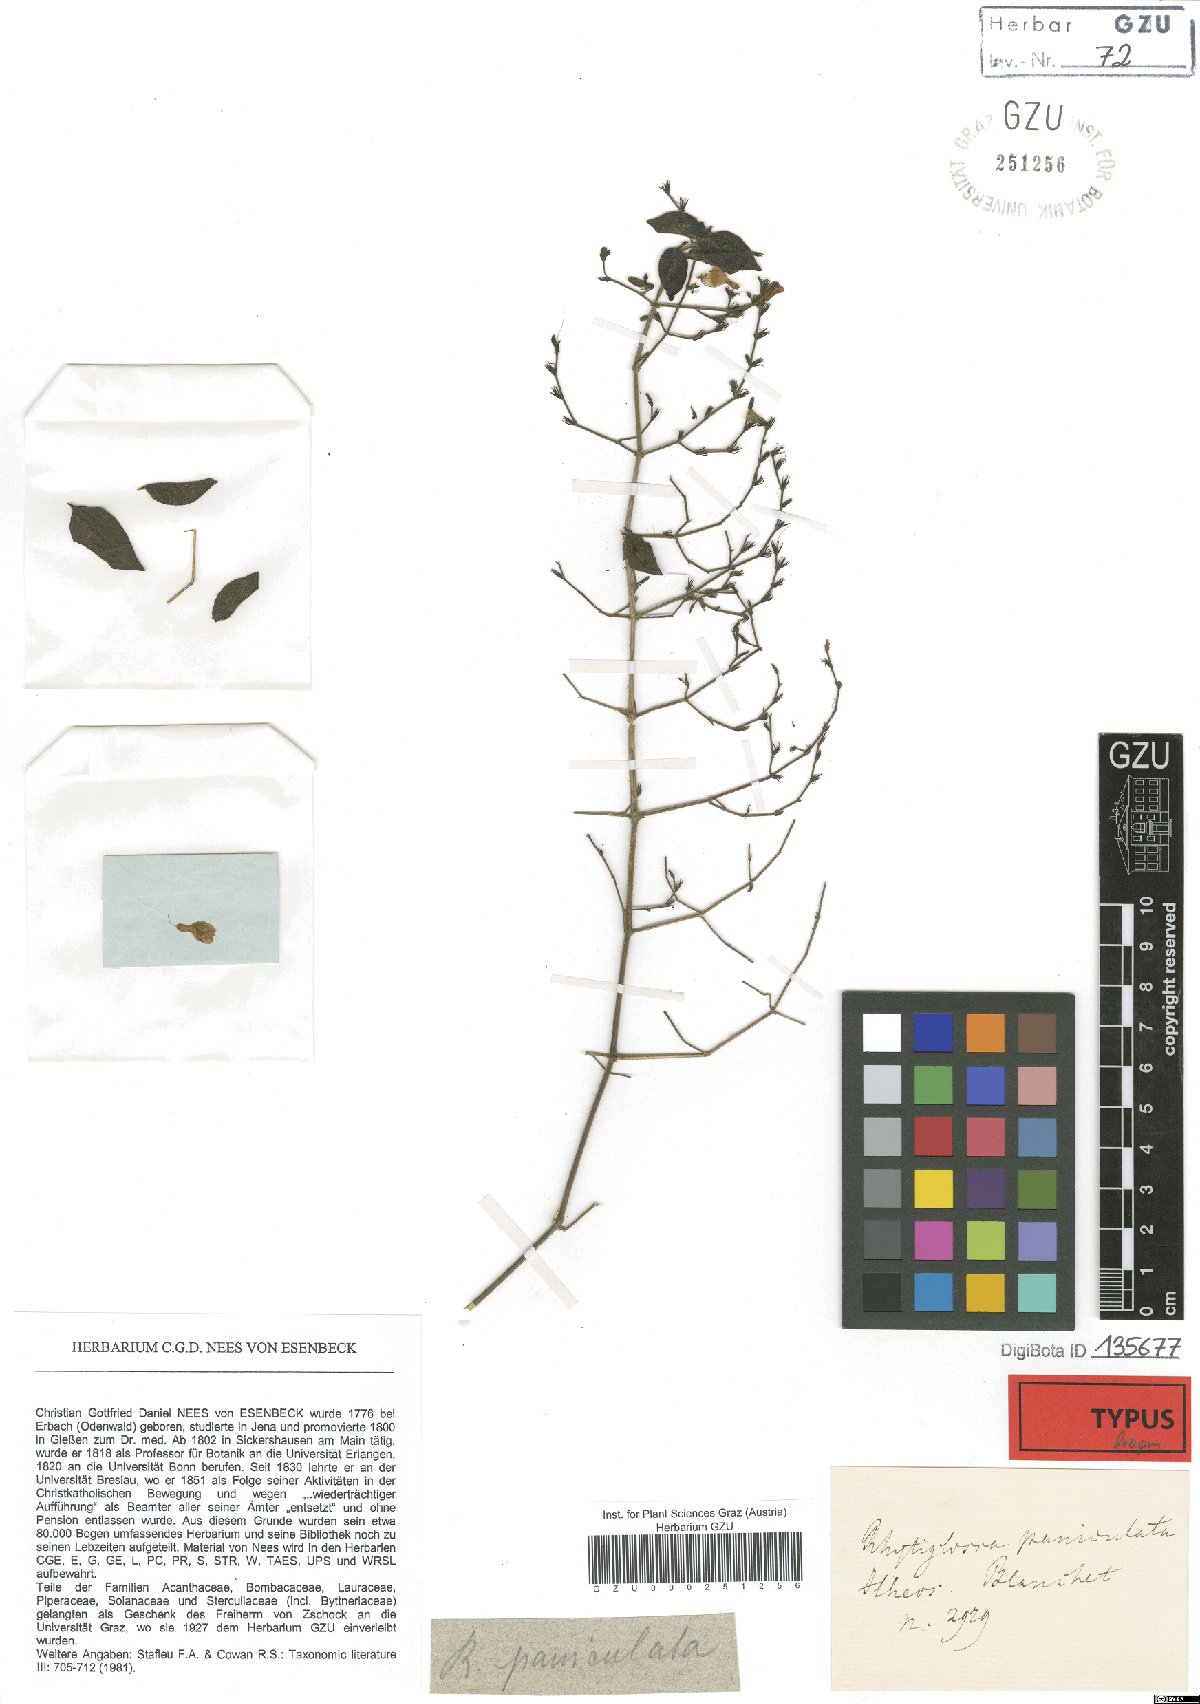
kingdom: Plantae
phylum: Tracheophyta
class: Magnoliopsida
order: Lamiales
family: Acanthaceae
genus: Justicia
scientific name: Justicia rubriflora
